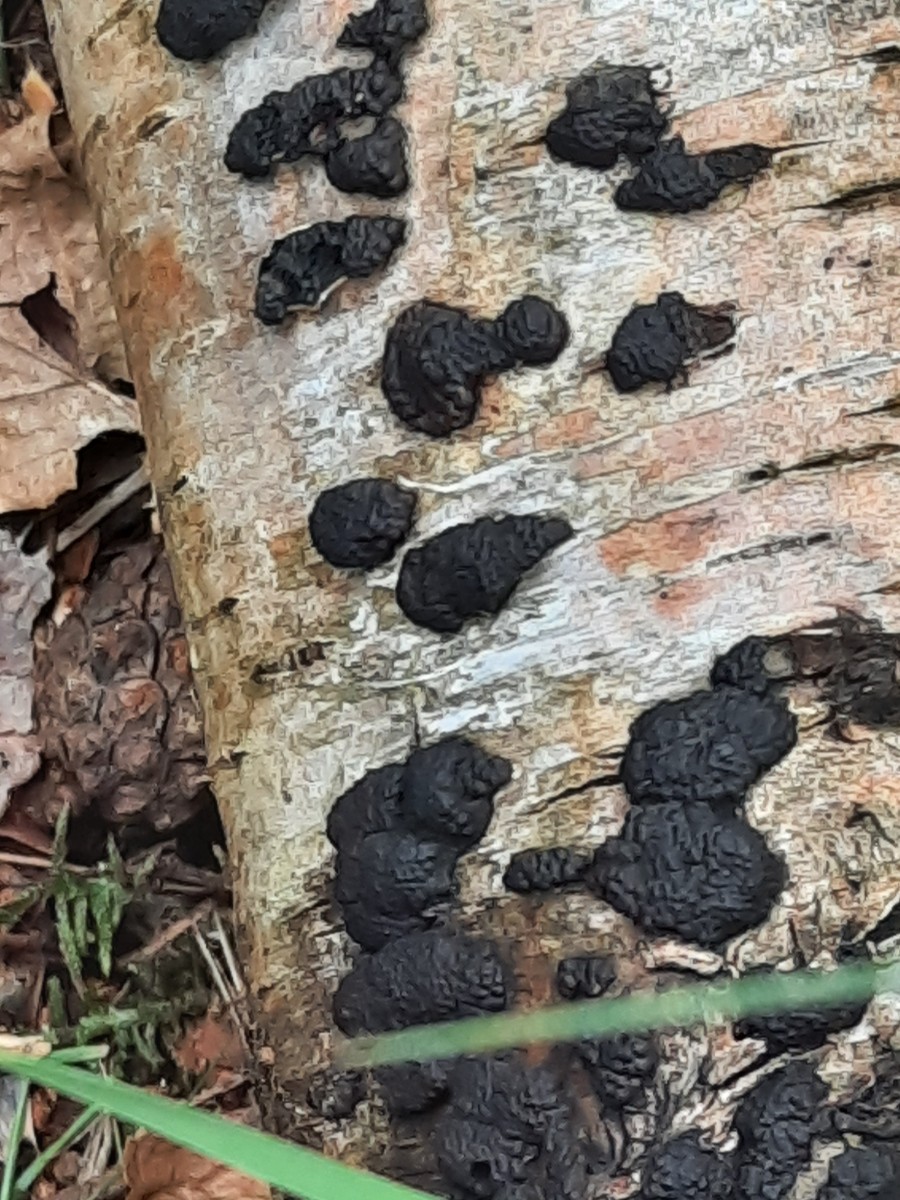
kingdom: Fungi
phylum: Ascomycota
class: Sordariomycetes
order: Xylariales
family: Hypoxylaceae
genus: Jackrogersella
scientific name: Jackrogersella multiformis
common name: foranderlig kulbær
